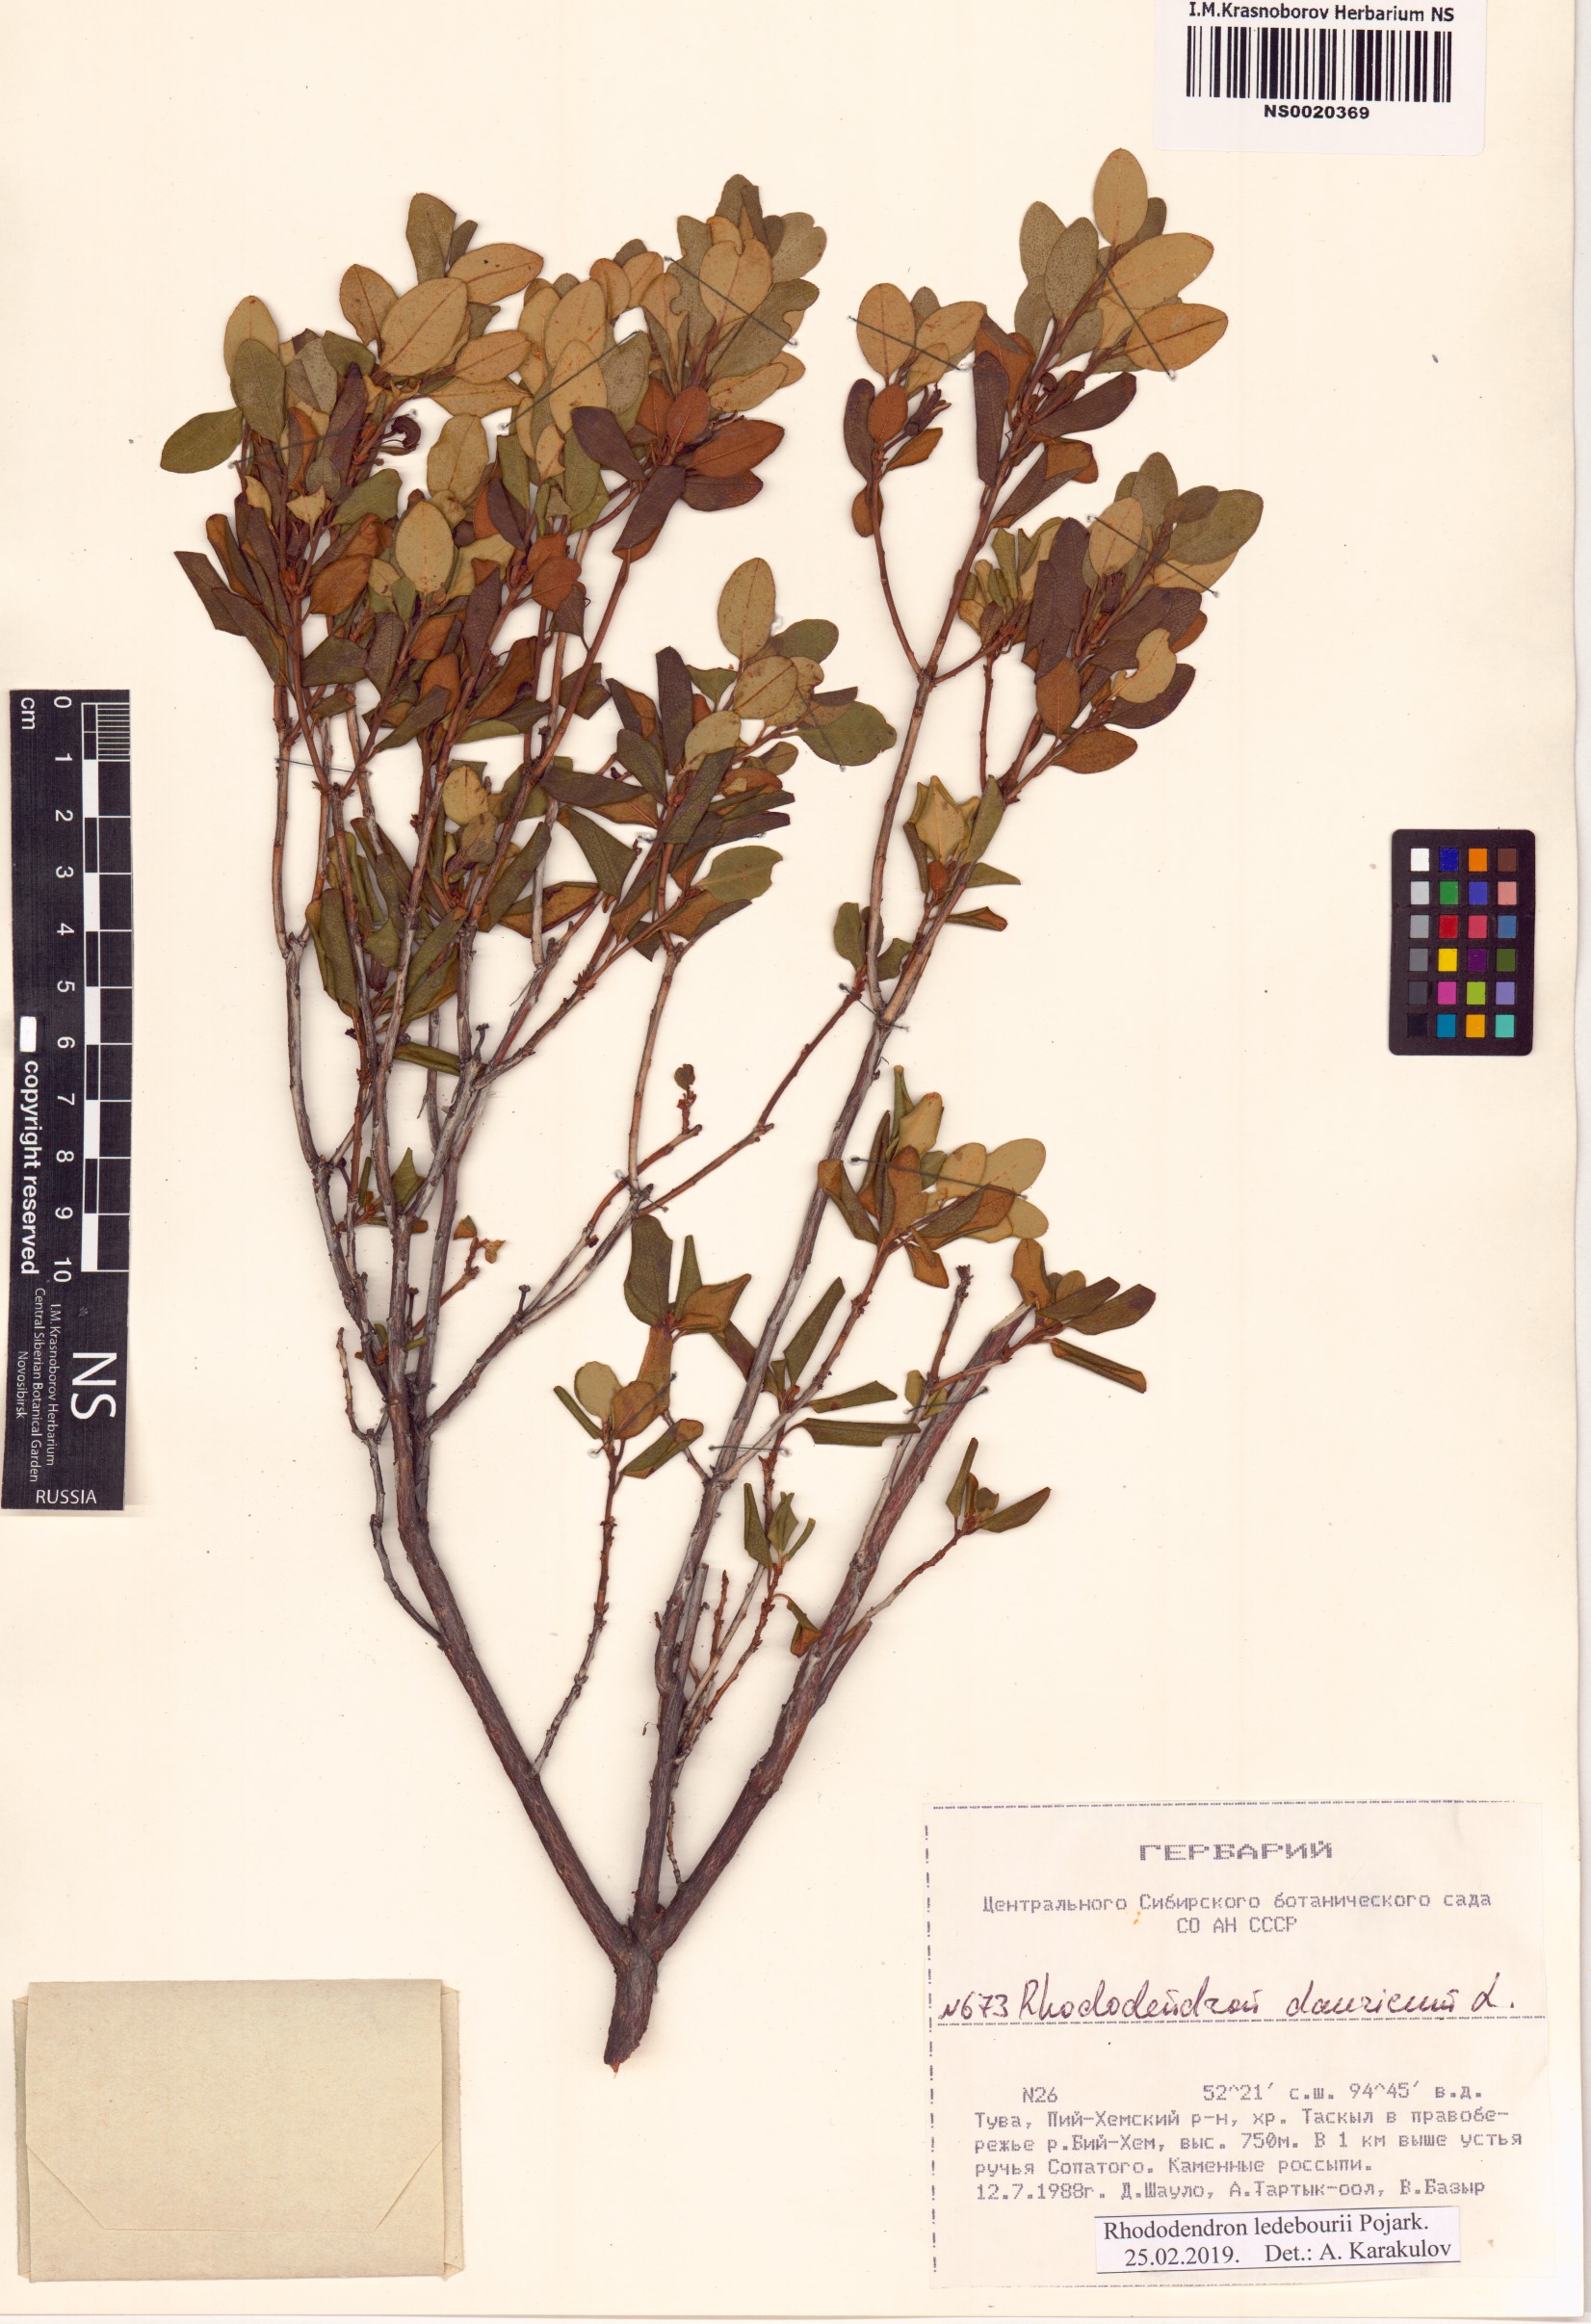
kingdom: Plantae
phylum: Tracheophyta
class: Magnoliopsida
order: Ericales
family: Ericaceae
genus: Rhododendron
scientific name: Rhododendron dauricum
